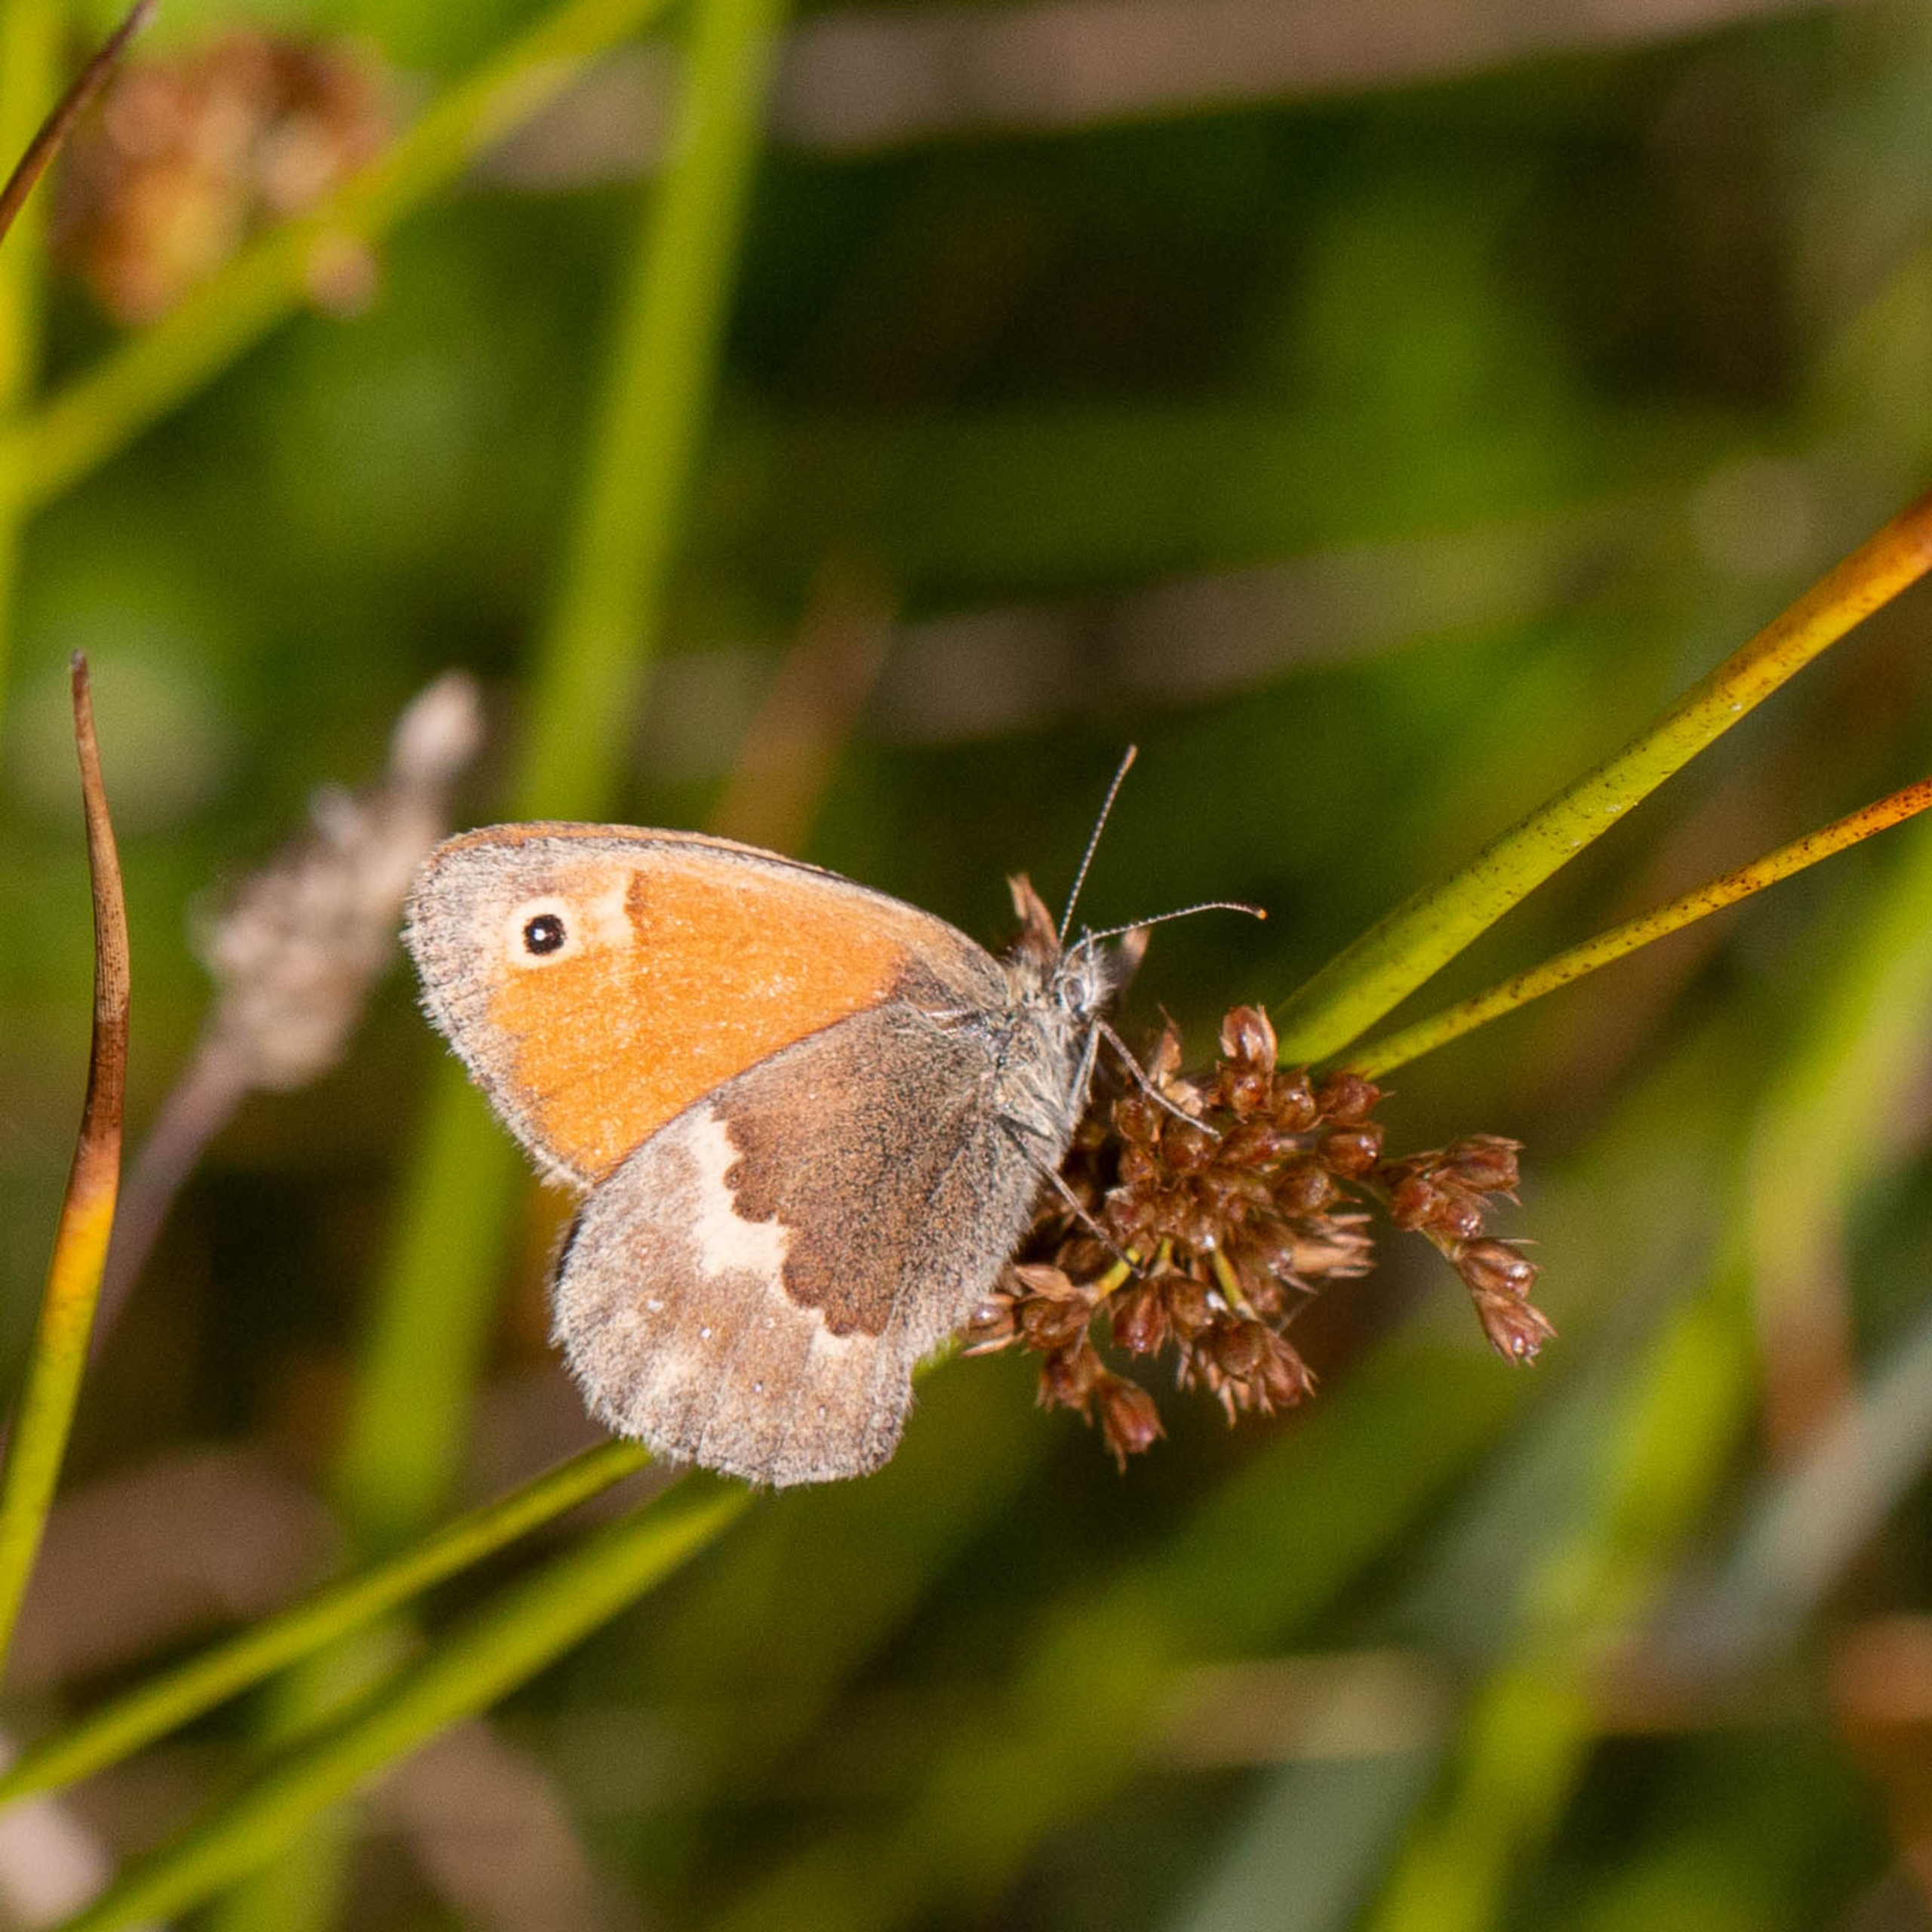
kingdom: Animalia
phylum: Arthropoda
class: Insecta
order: Lepidoptera
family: Nymphalidae
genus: Coenonympha
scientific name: Coenonympha pamphilus
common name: Okkergul randøje
